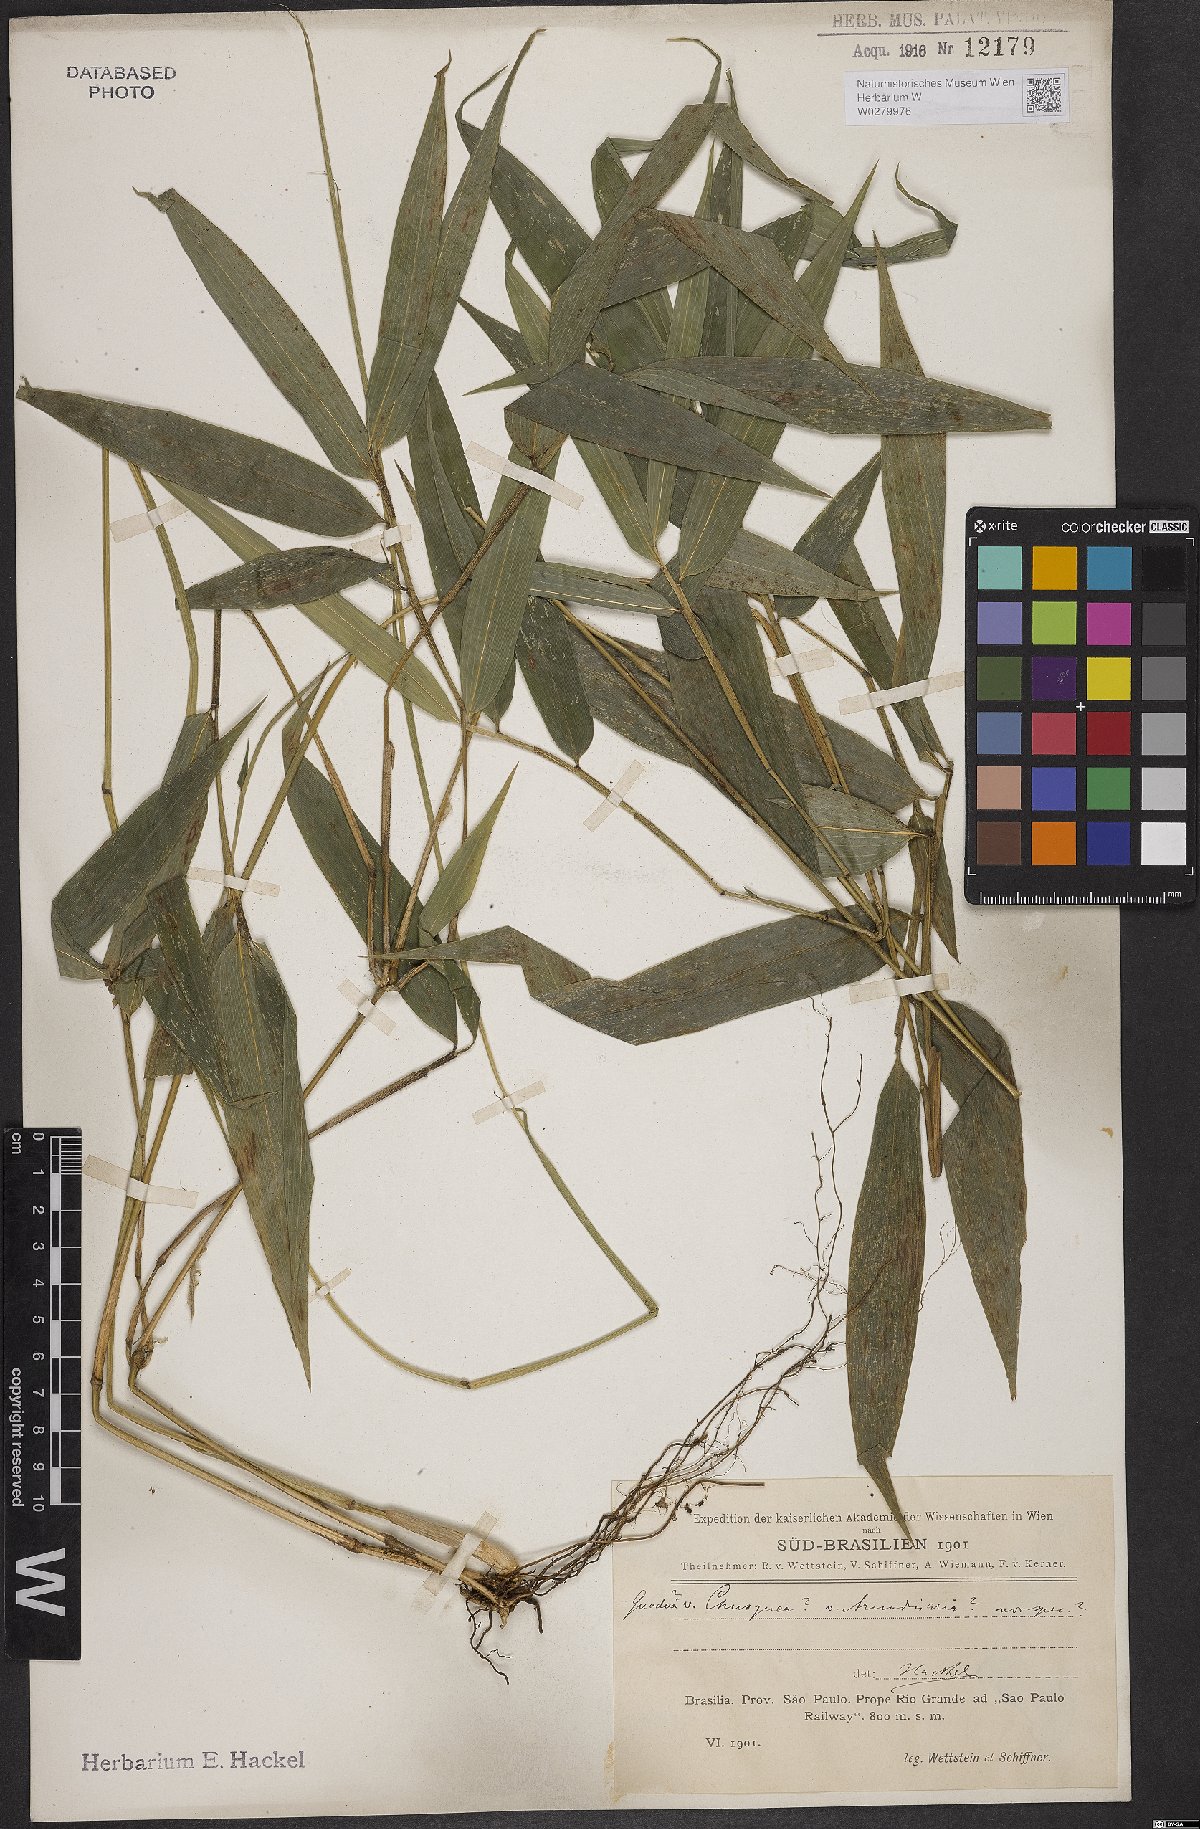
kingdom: Plantae
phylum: Tracheophyta
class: Liliopsida
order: Poales
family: Poaceae
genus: Bambusa
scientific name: Bambusa
